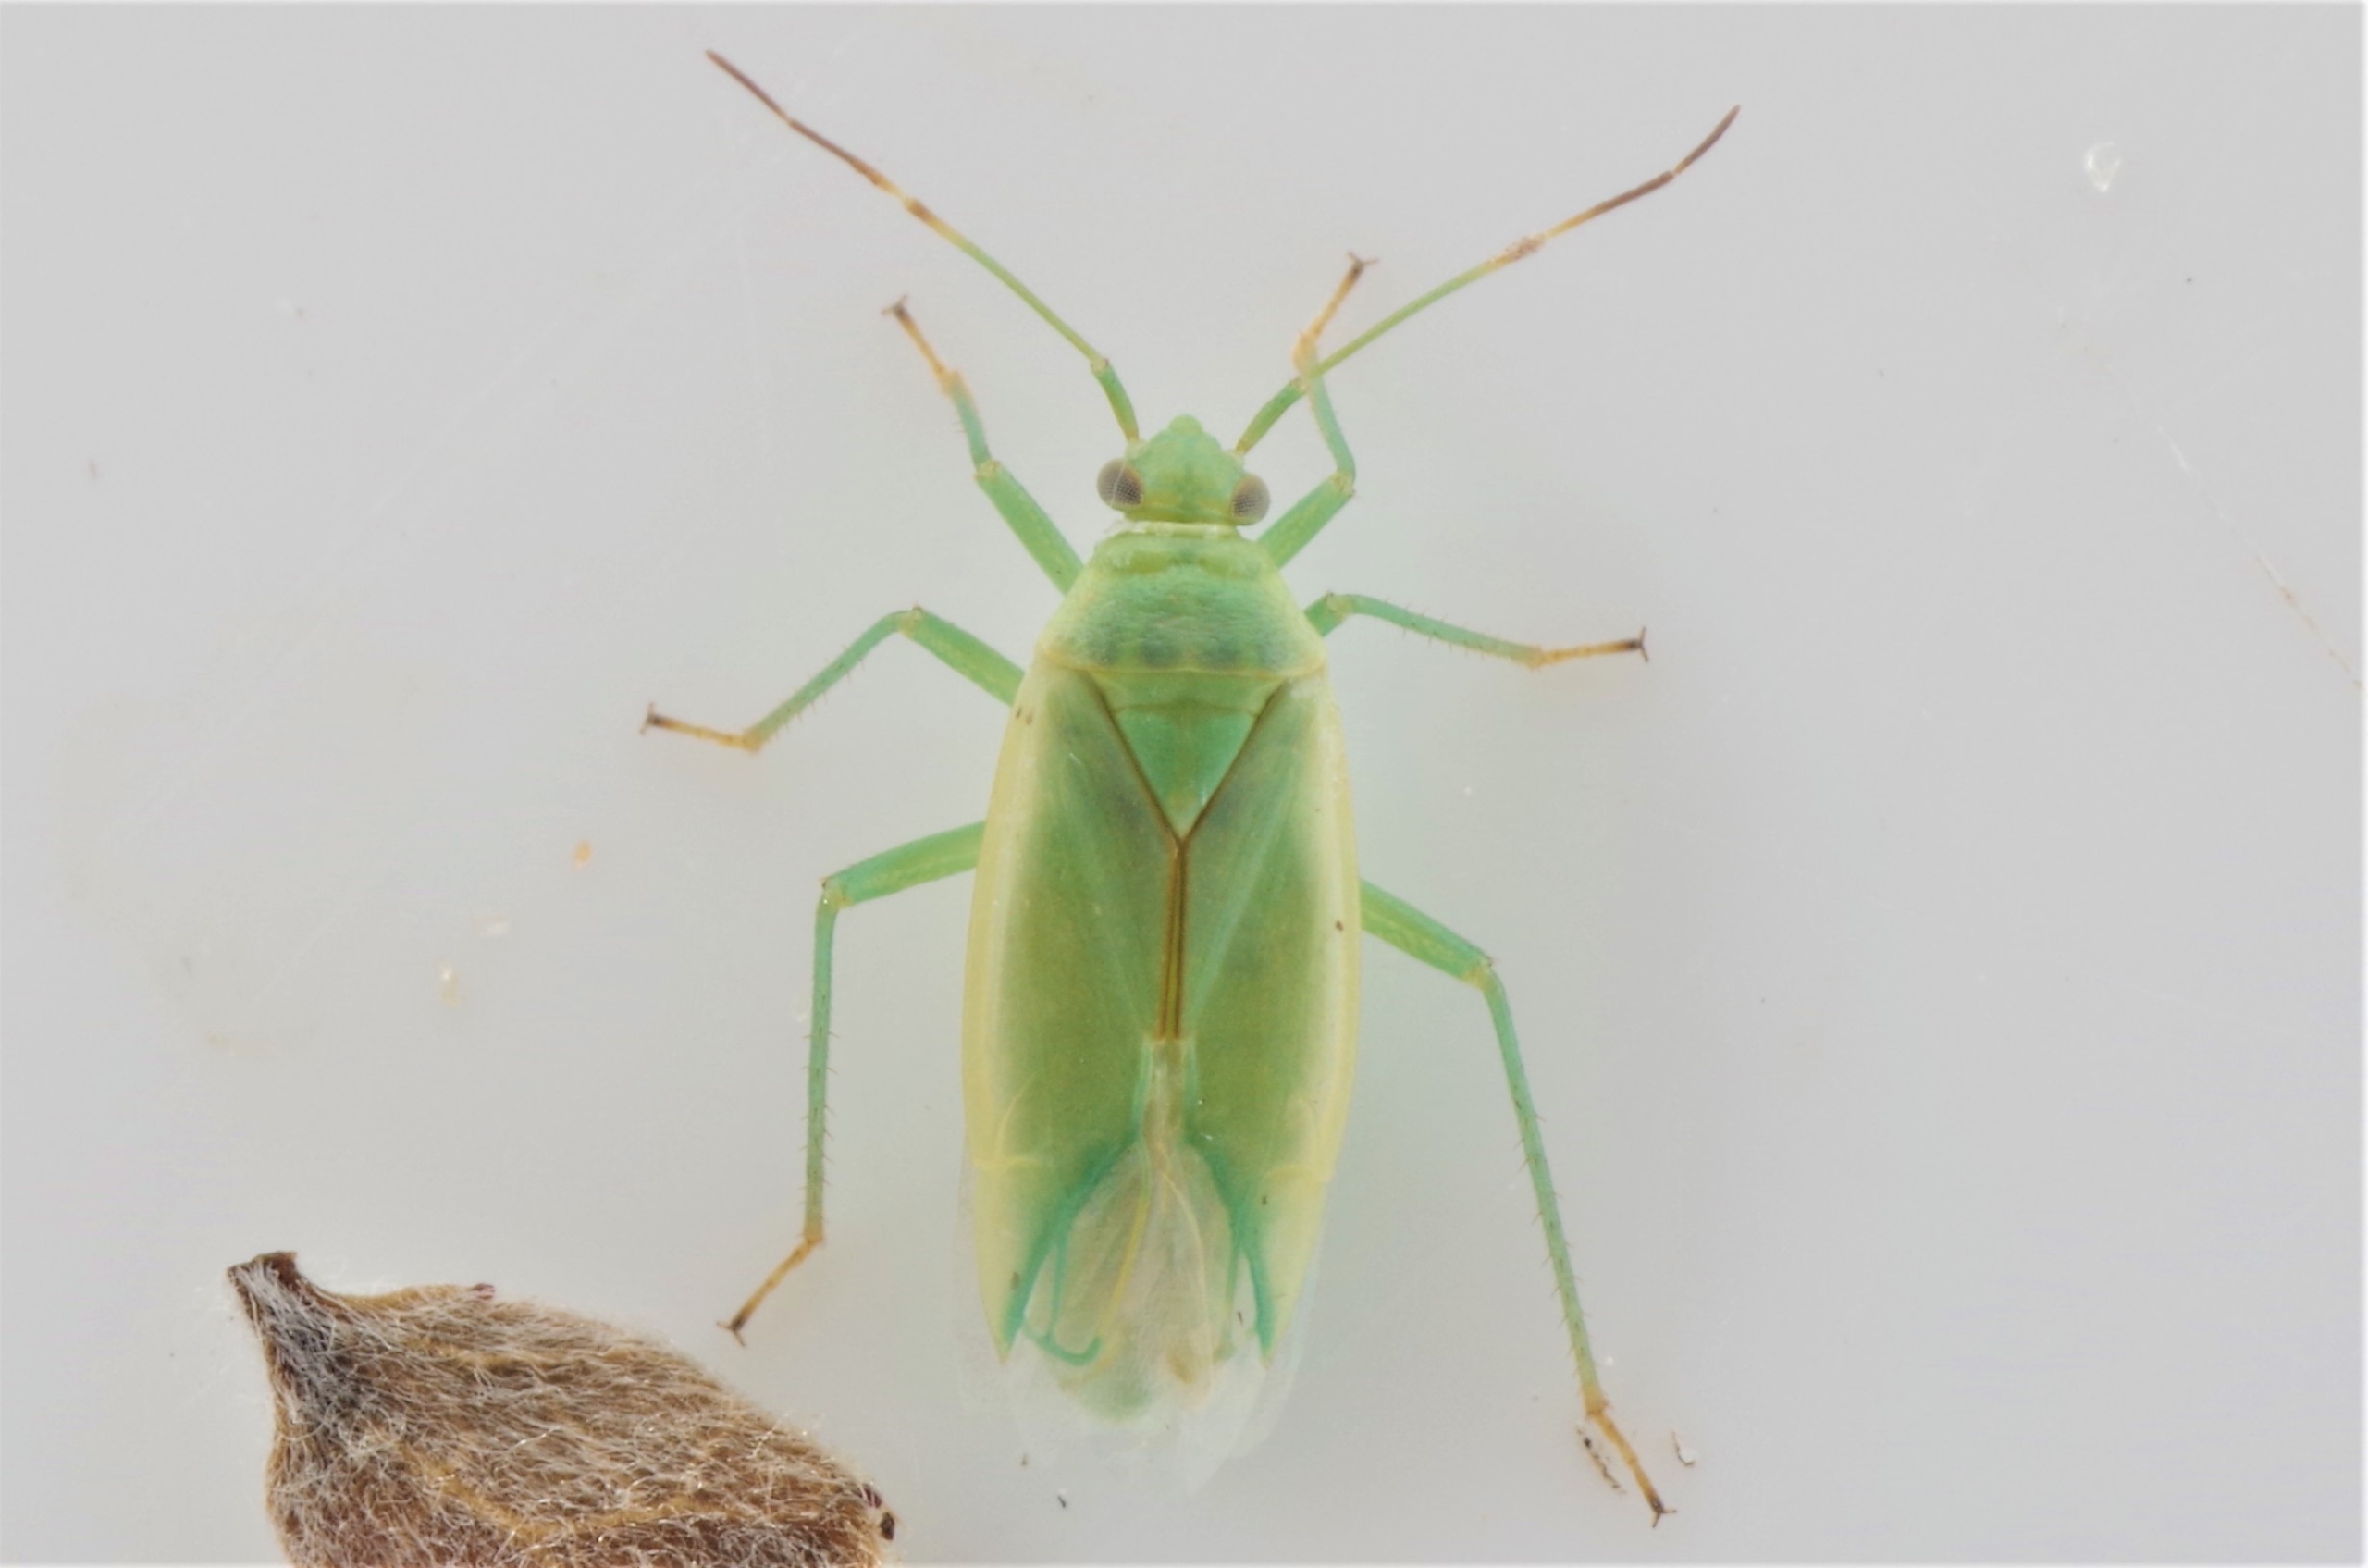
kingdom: Animalia
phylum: Arthropoda
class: Insecta
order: Hemiptera
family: Miridae
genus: Lygocoris
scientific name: Lygocoris rugicollis
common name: Æbletæge
